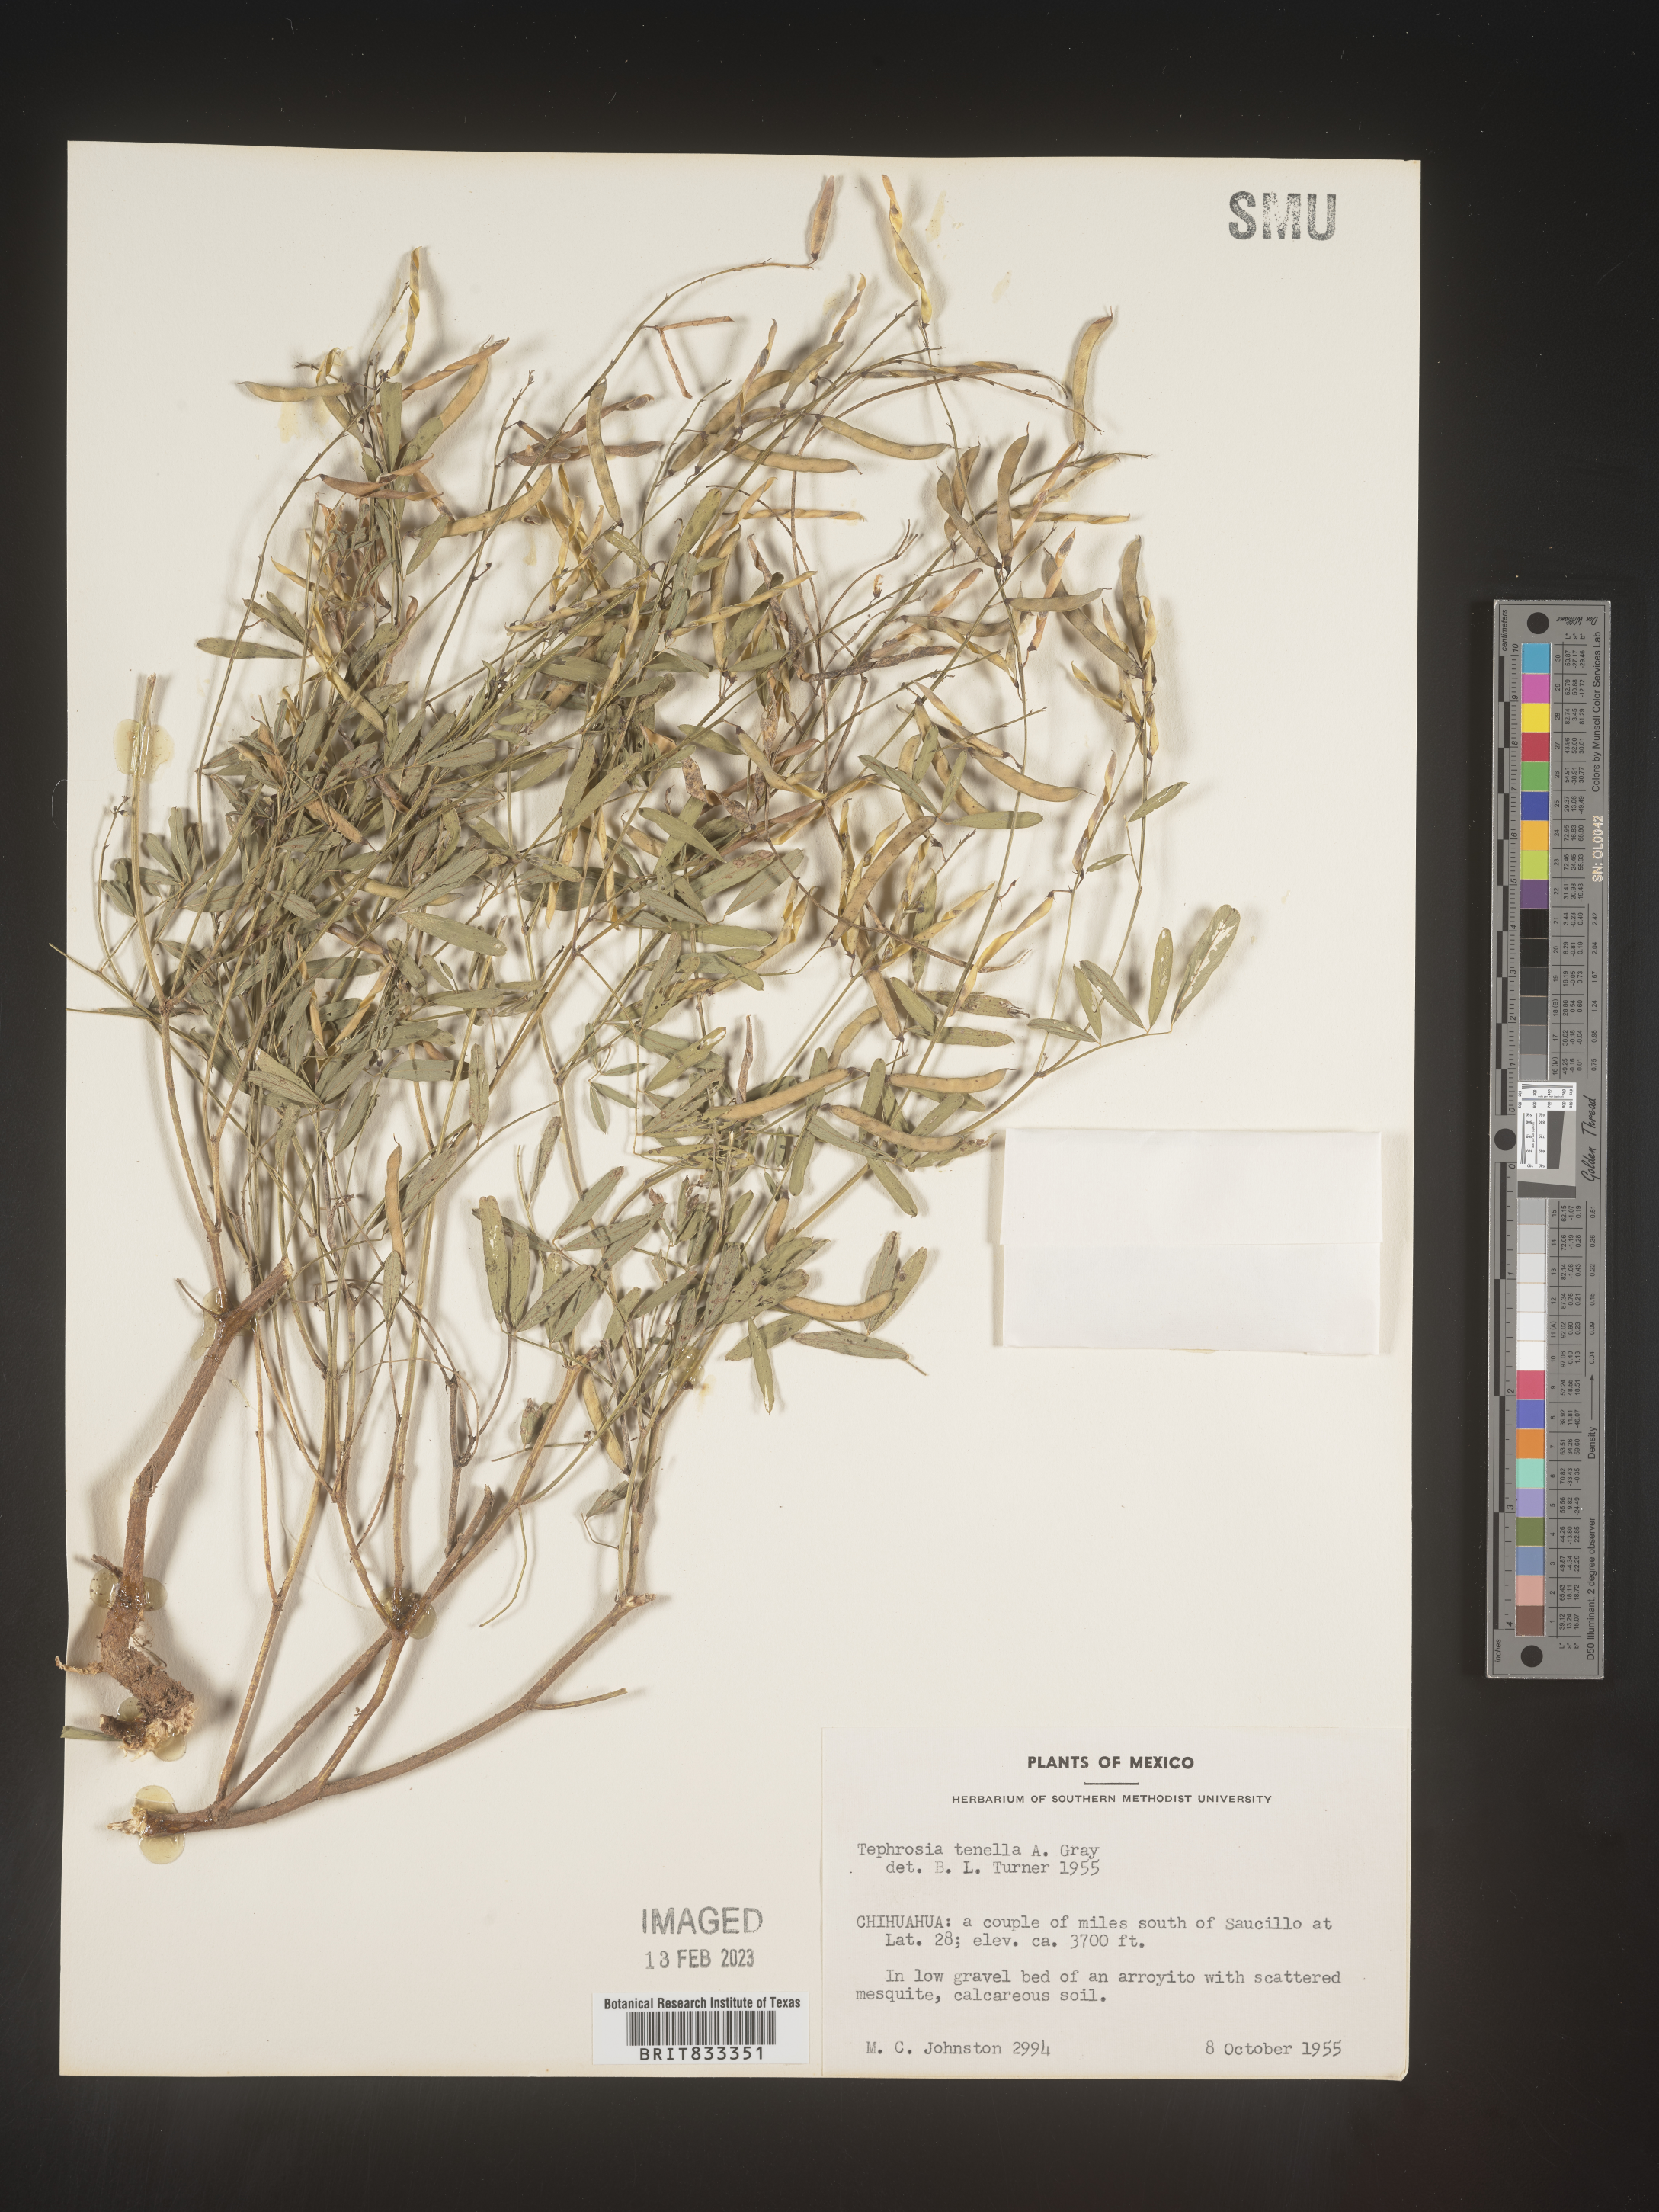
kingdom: Plantae
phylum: Tracheophyta
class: Magnoliopsida
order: Fabales
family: Fabaceae
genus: Tephrosia
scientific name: Tephrosia
